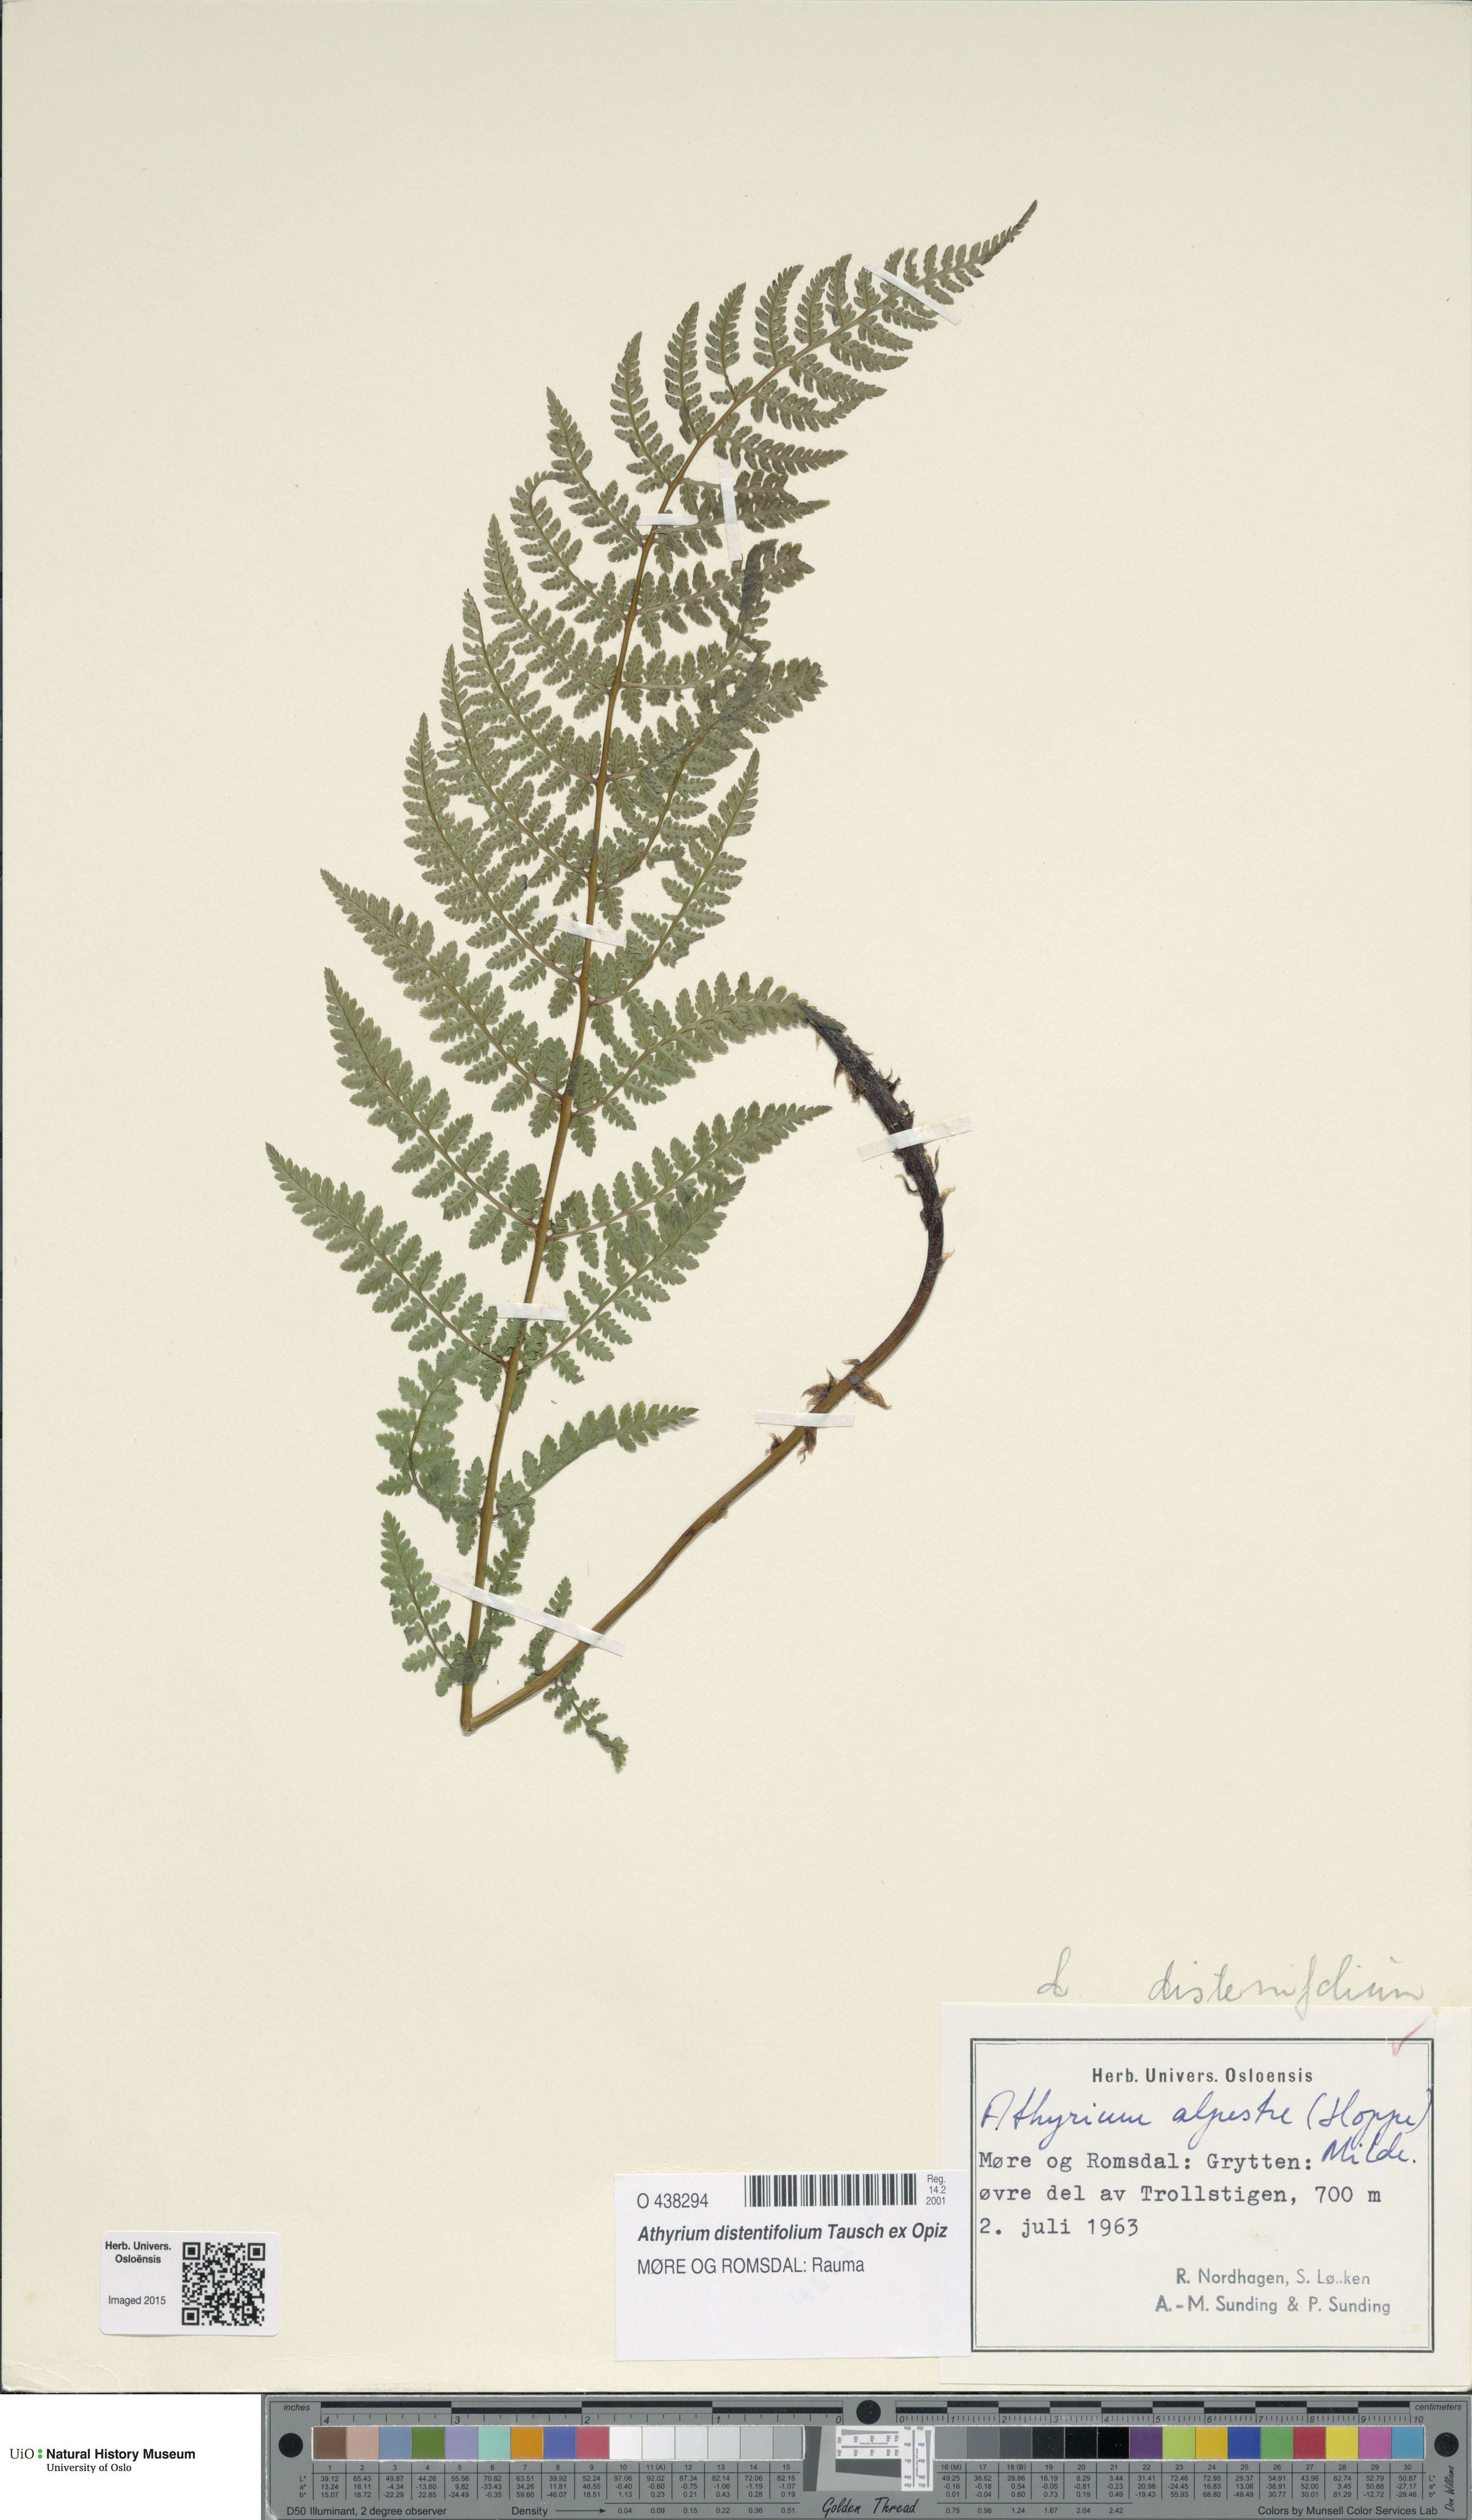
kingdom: Plantae
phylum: Tracheophyta
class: Polypodiopsida
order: Polypodiales
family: Athyriaceae
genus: Pseudathyrium
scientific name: Pseudathyrium alpestre
